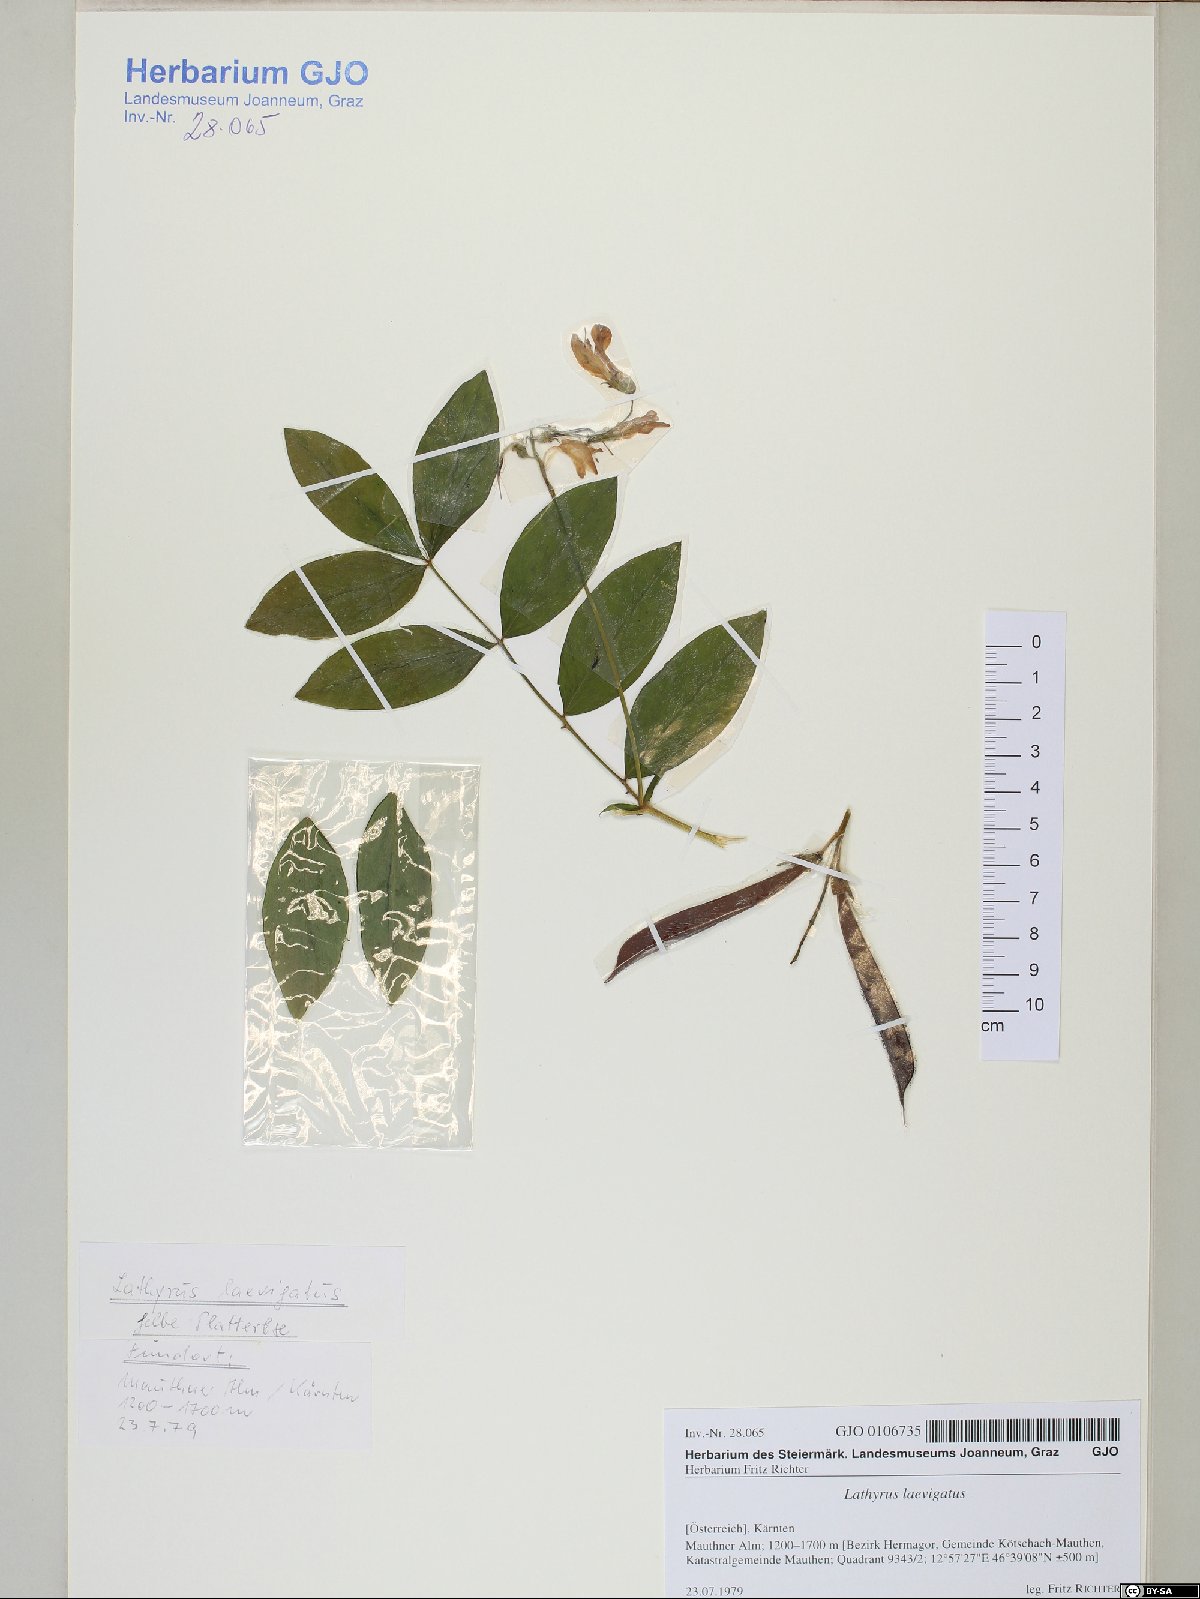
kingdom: Plantae
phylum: Tracheophyta
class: Magnoliopsida
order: Fabales
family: Fabaceae
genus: Lathyrus
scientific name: Lathyrus laevigatus
